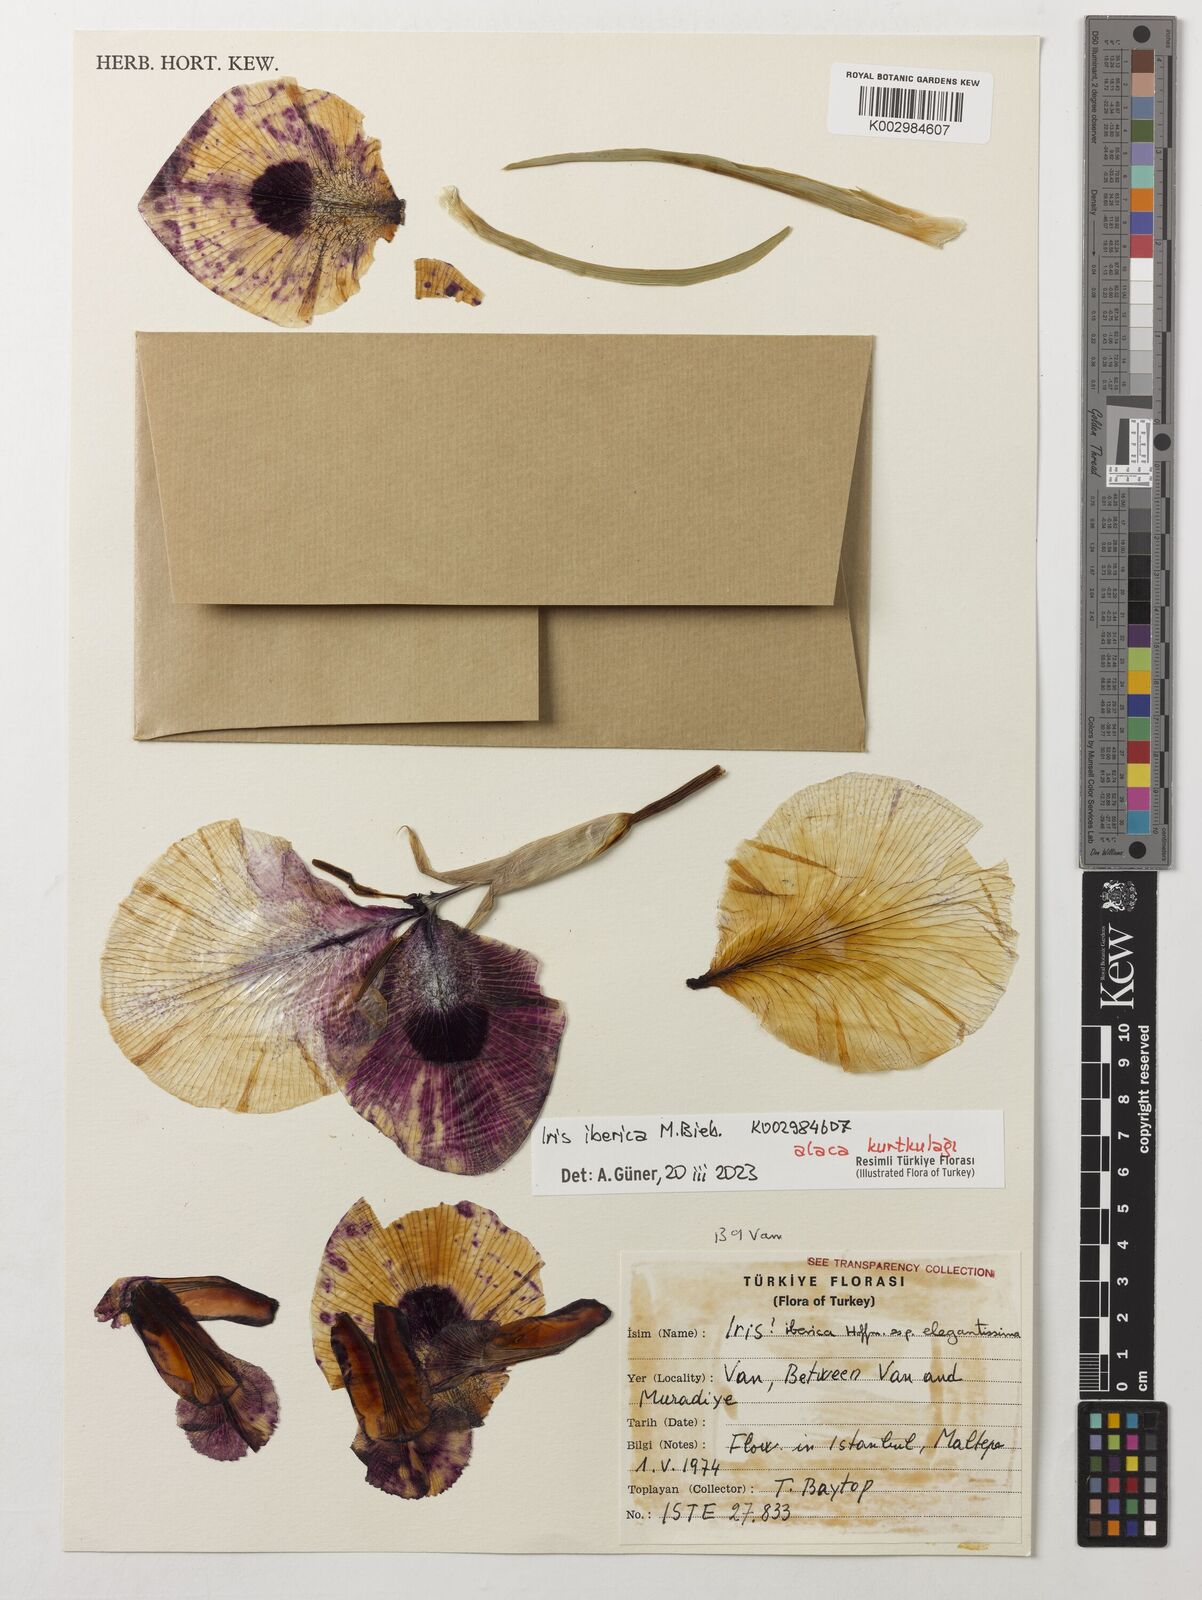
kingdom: Plantae
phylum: Tracheophyta
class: Liliopsida
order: Asparagales
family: Iridaceae
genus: Iris
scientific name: Iris iberica
